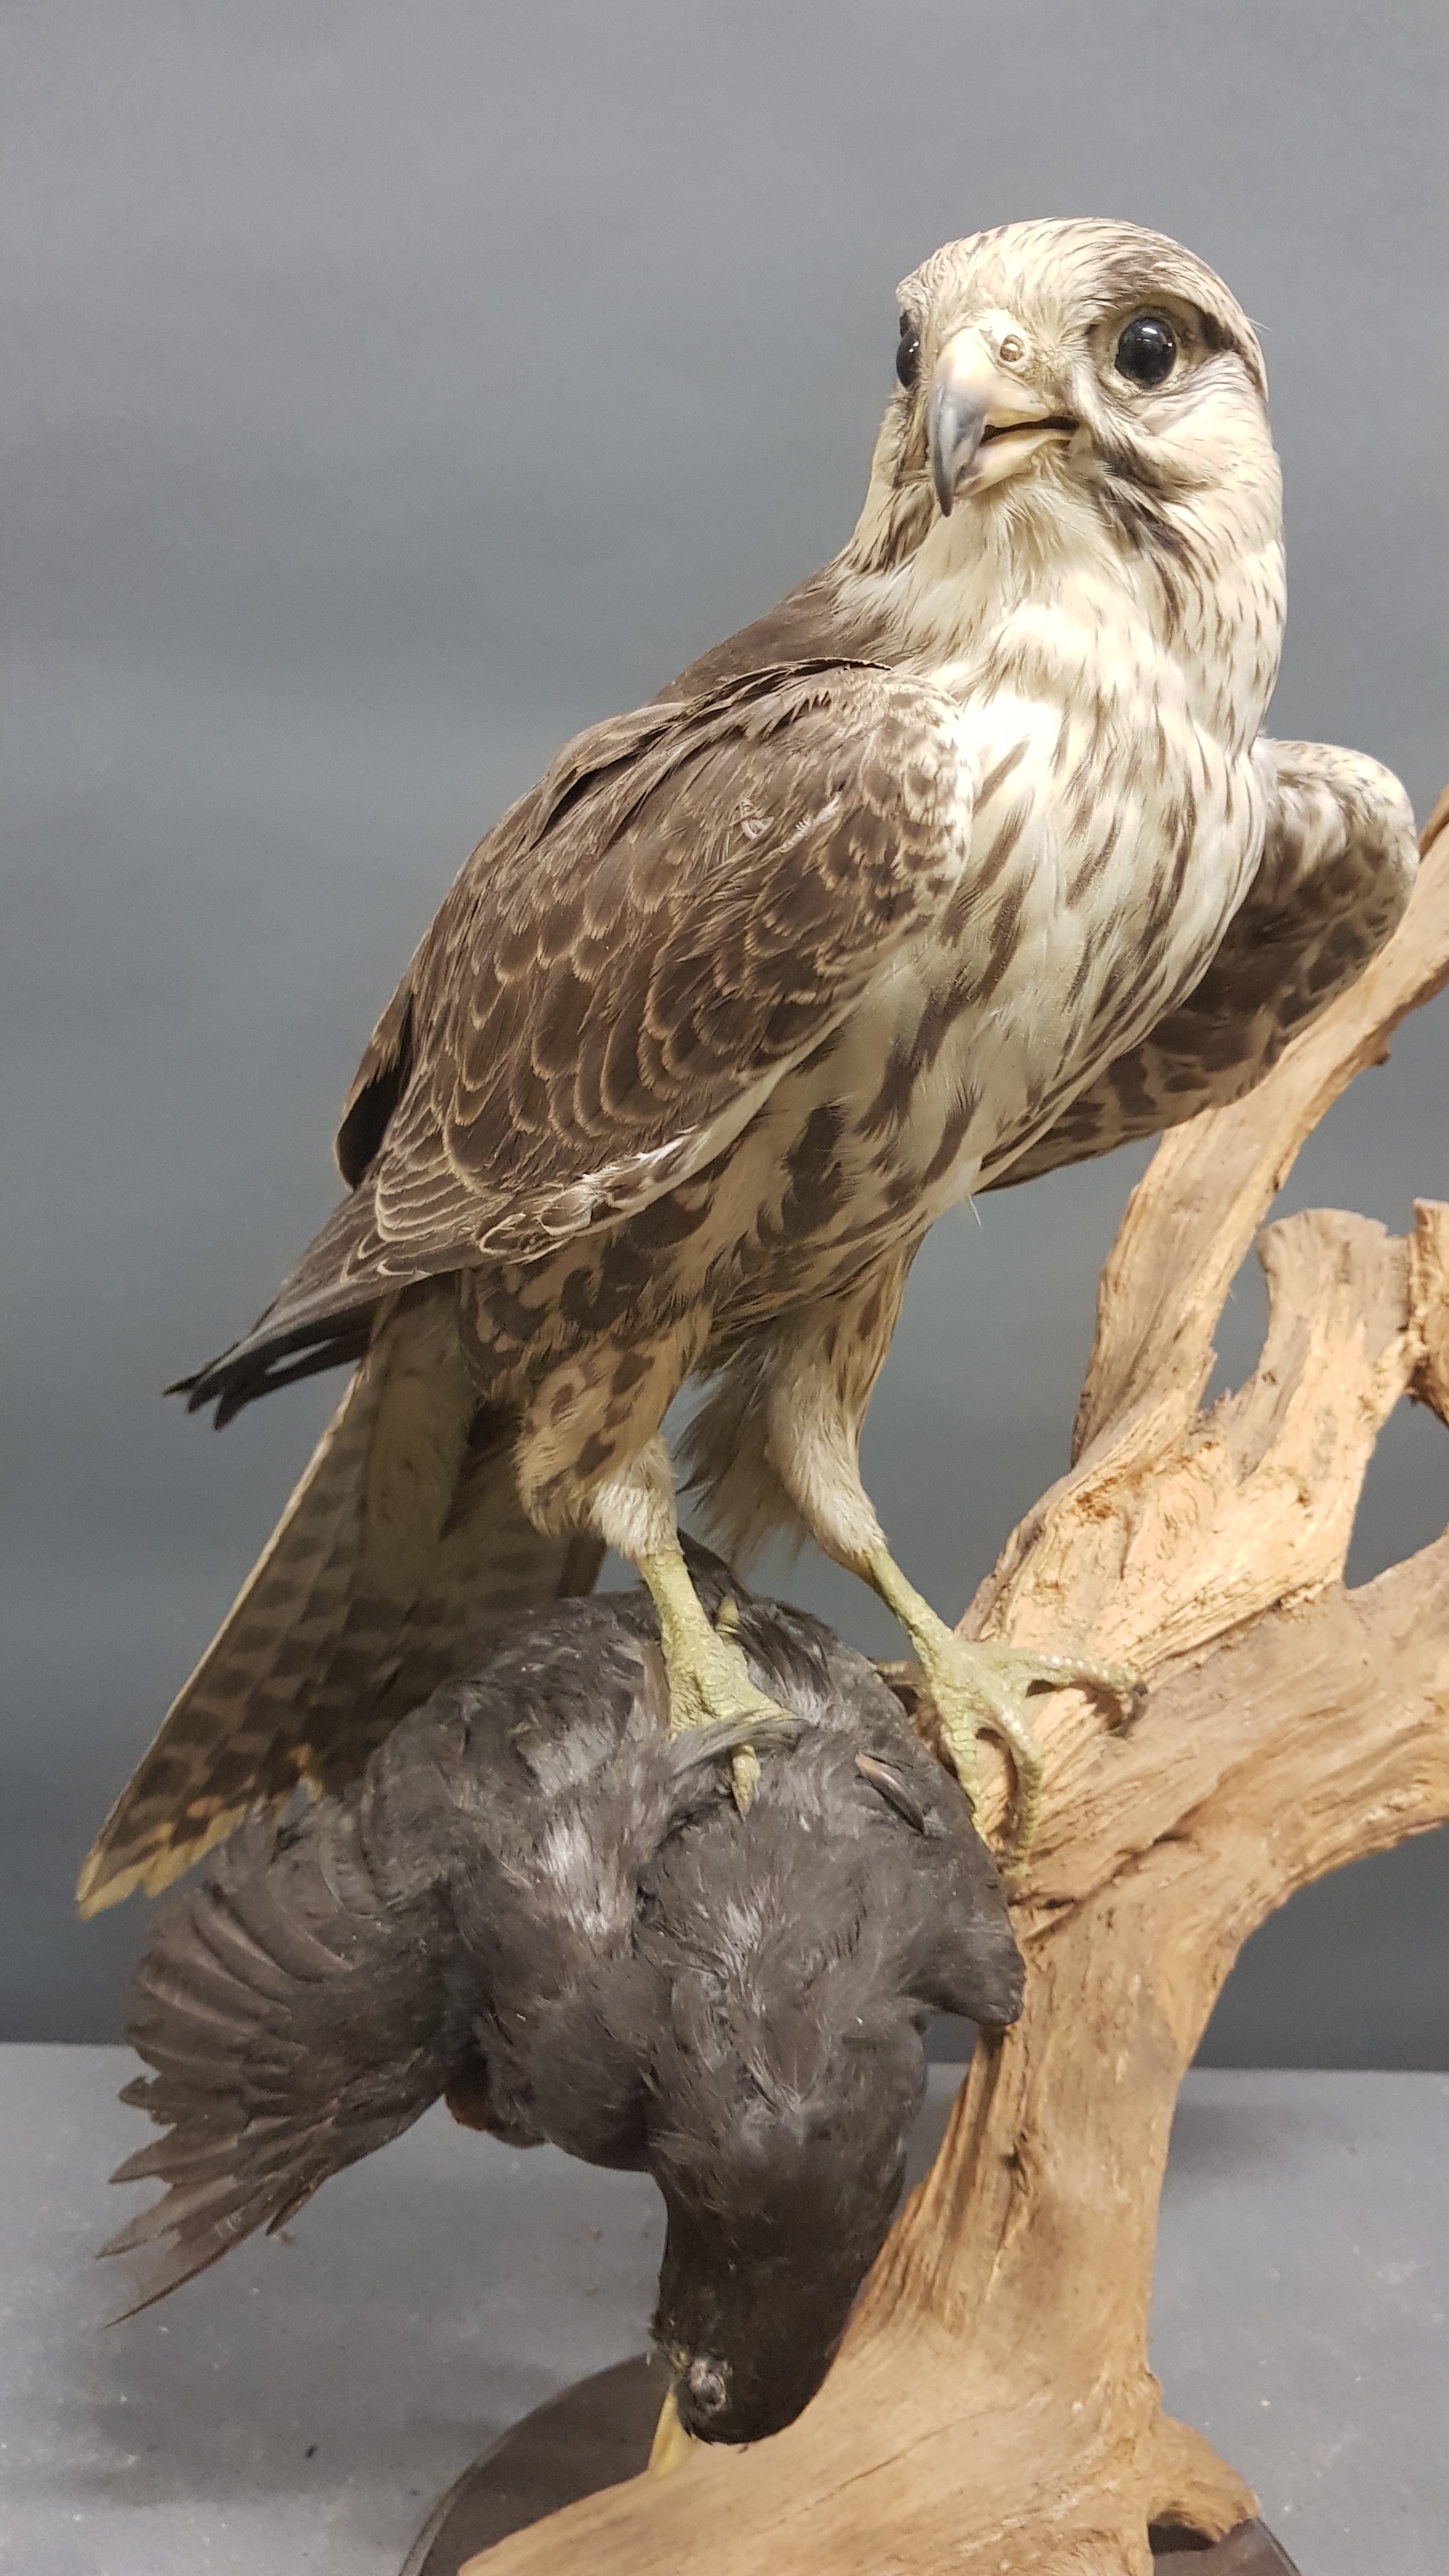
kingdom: Animalia
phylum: Chordata
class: Aves
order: Falconiformes
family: Falconidae
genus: Falco
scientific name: Falco biarmicus
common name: Lanner falcon
